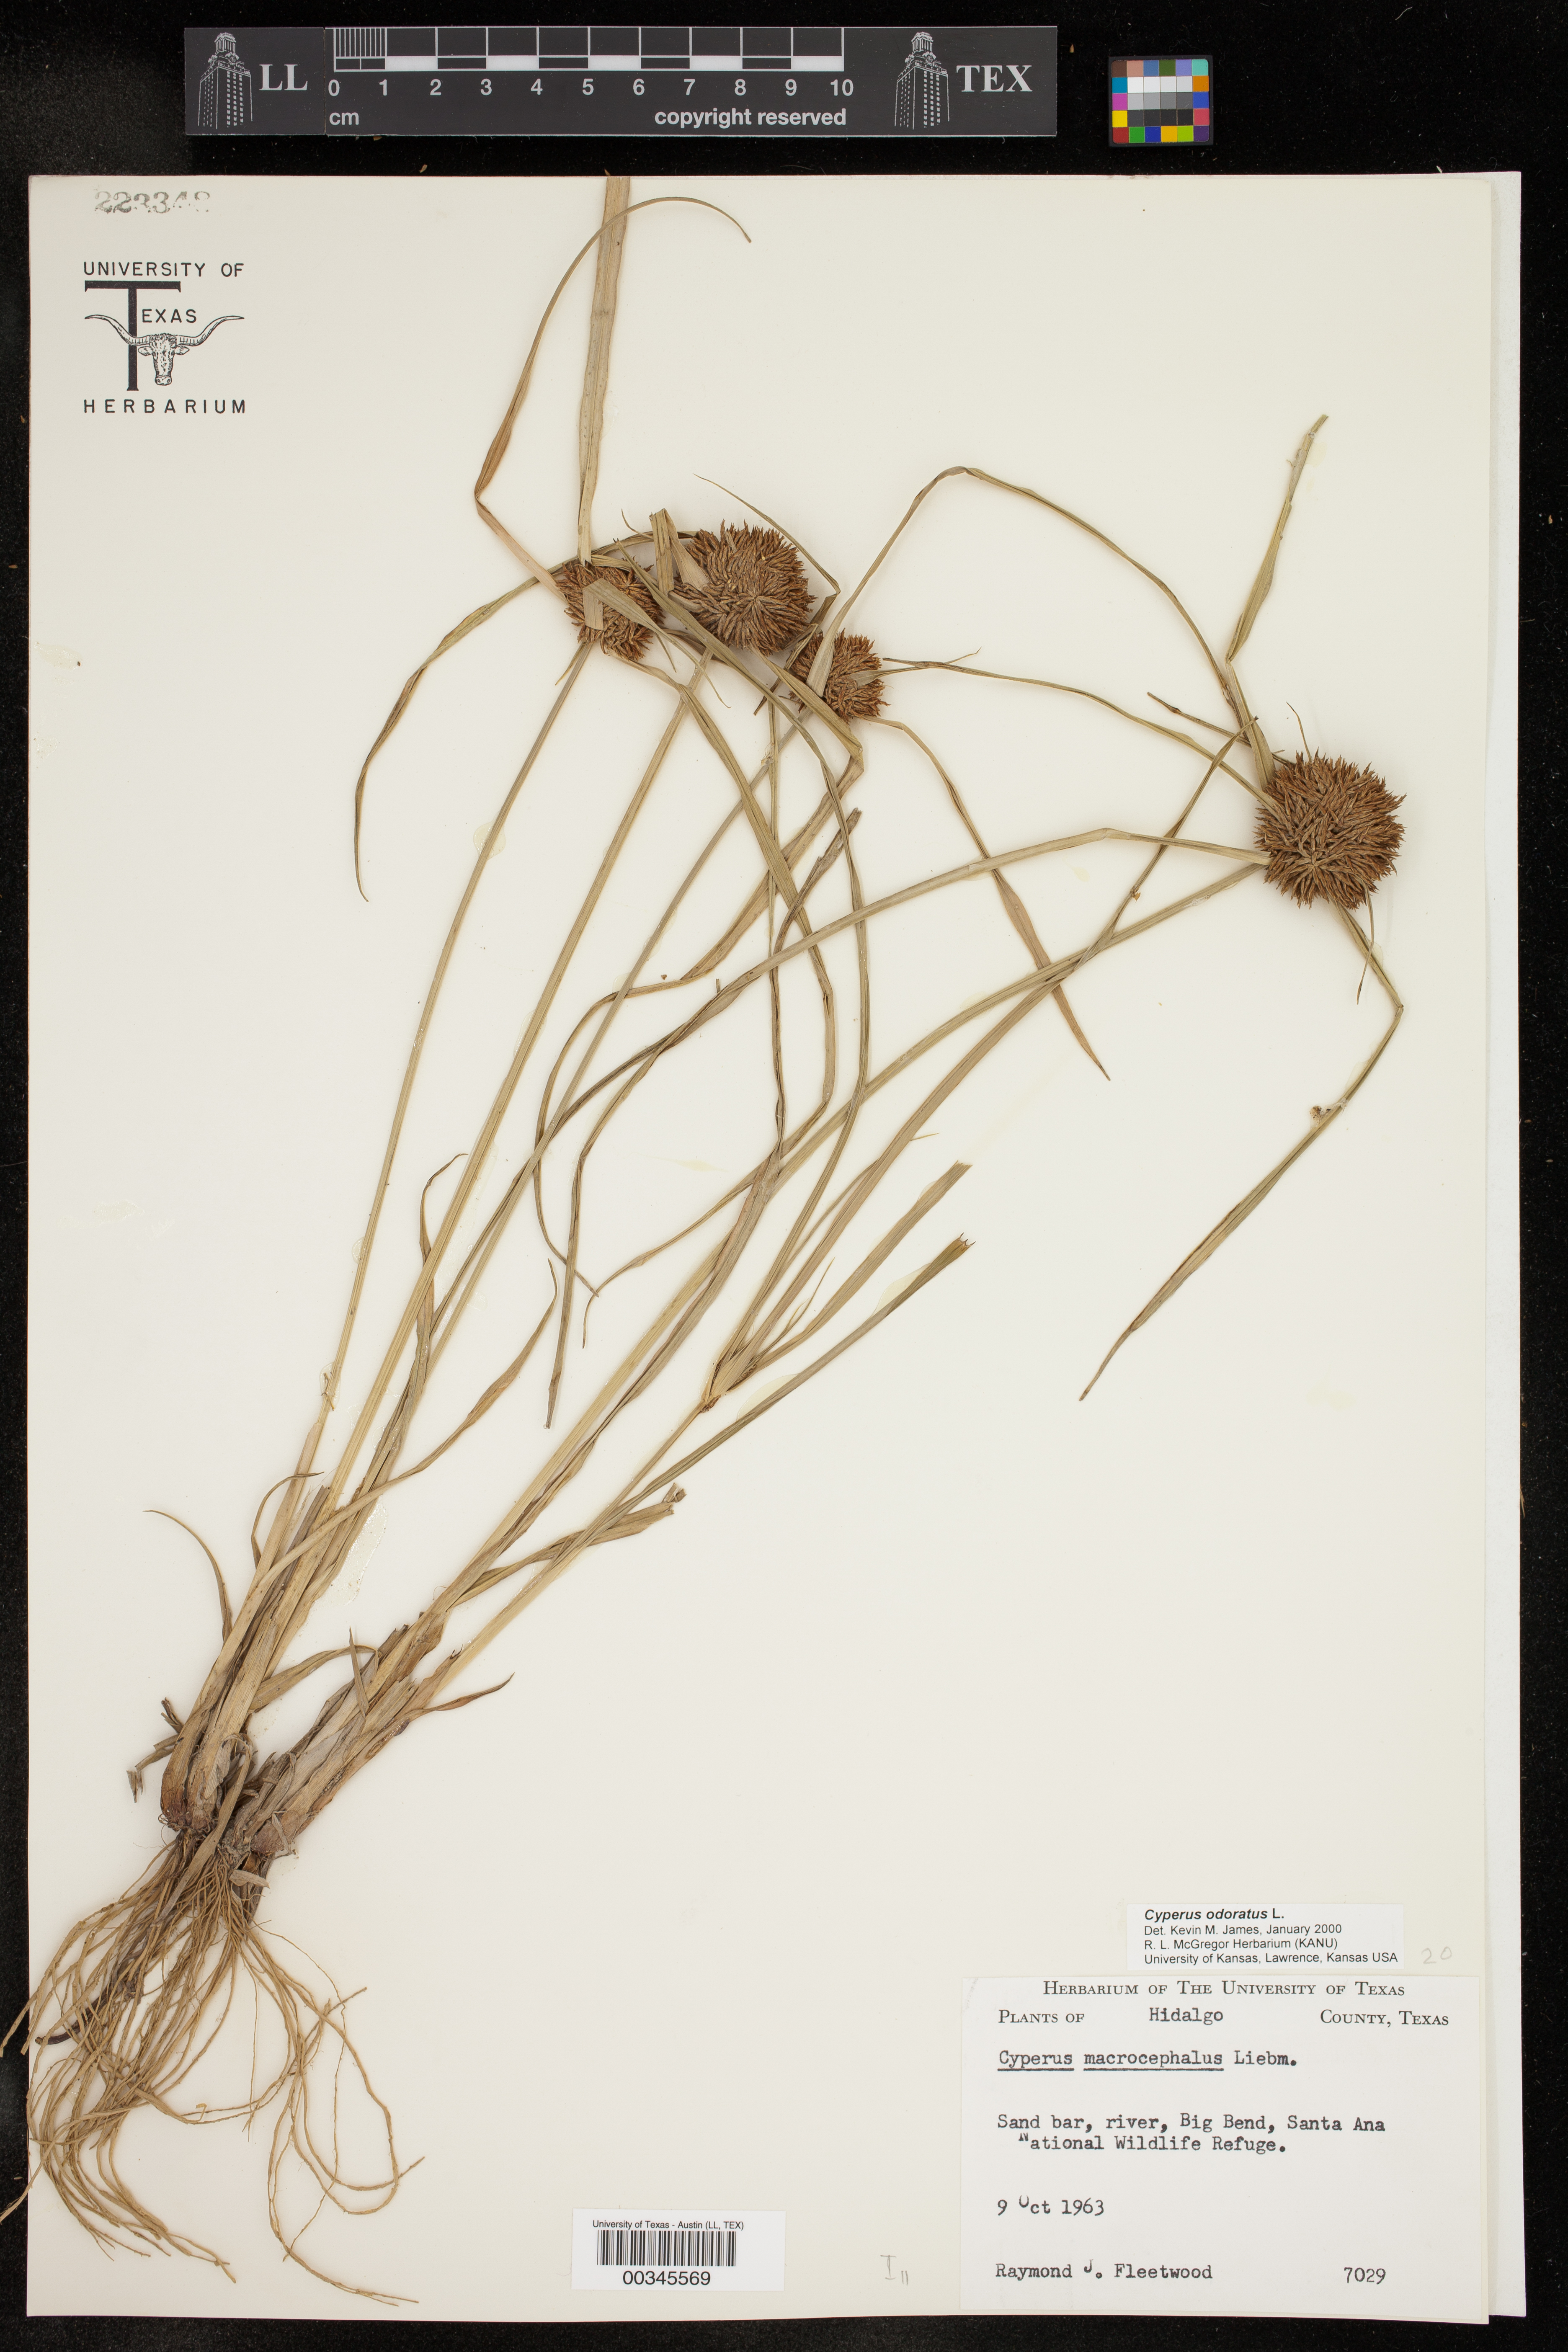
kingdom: Plantae
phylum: Tracheophyta
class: Liliopsida
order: Poales
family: Cyperaceae
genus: Cyperus
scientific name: Cyperus odoratus
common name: Fragrant flatsedge
